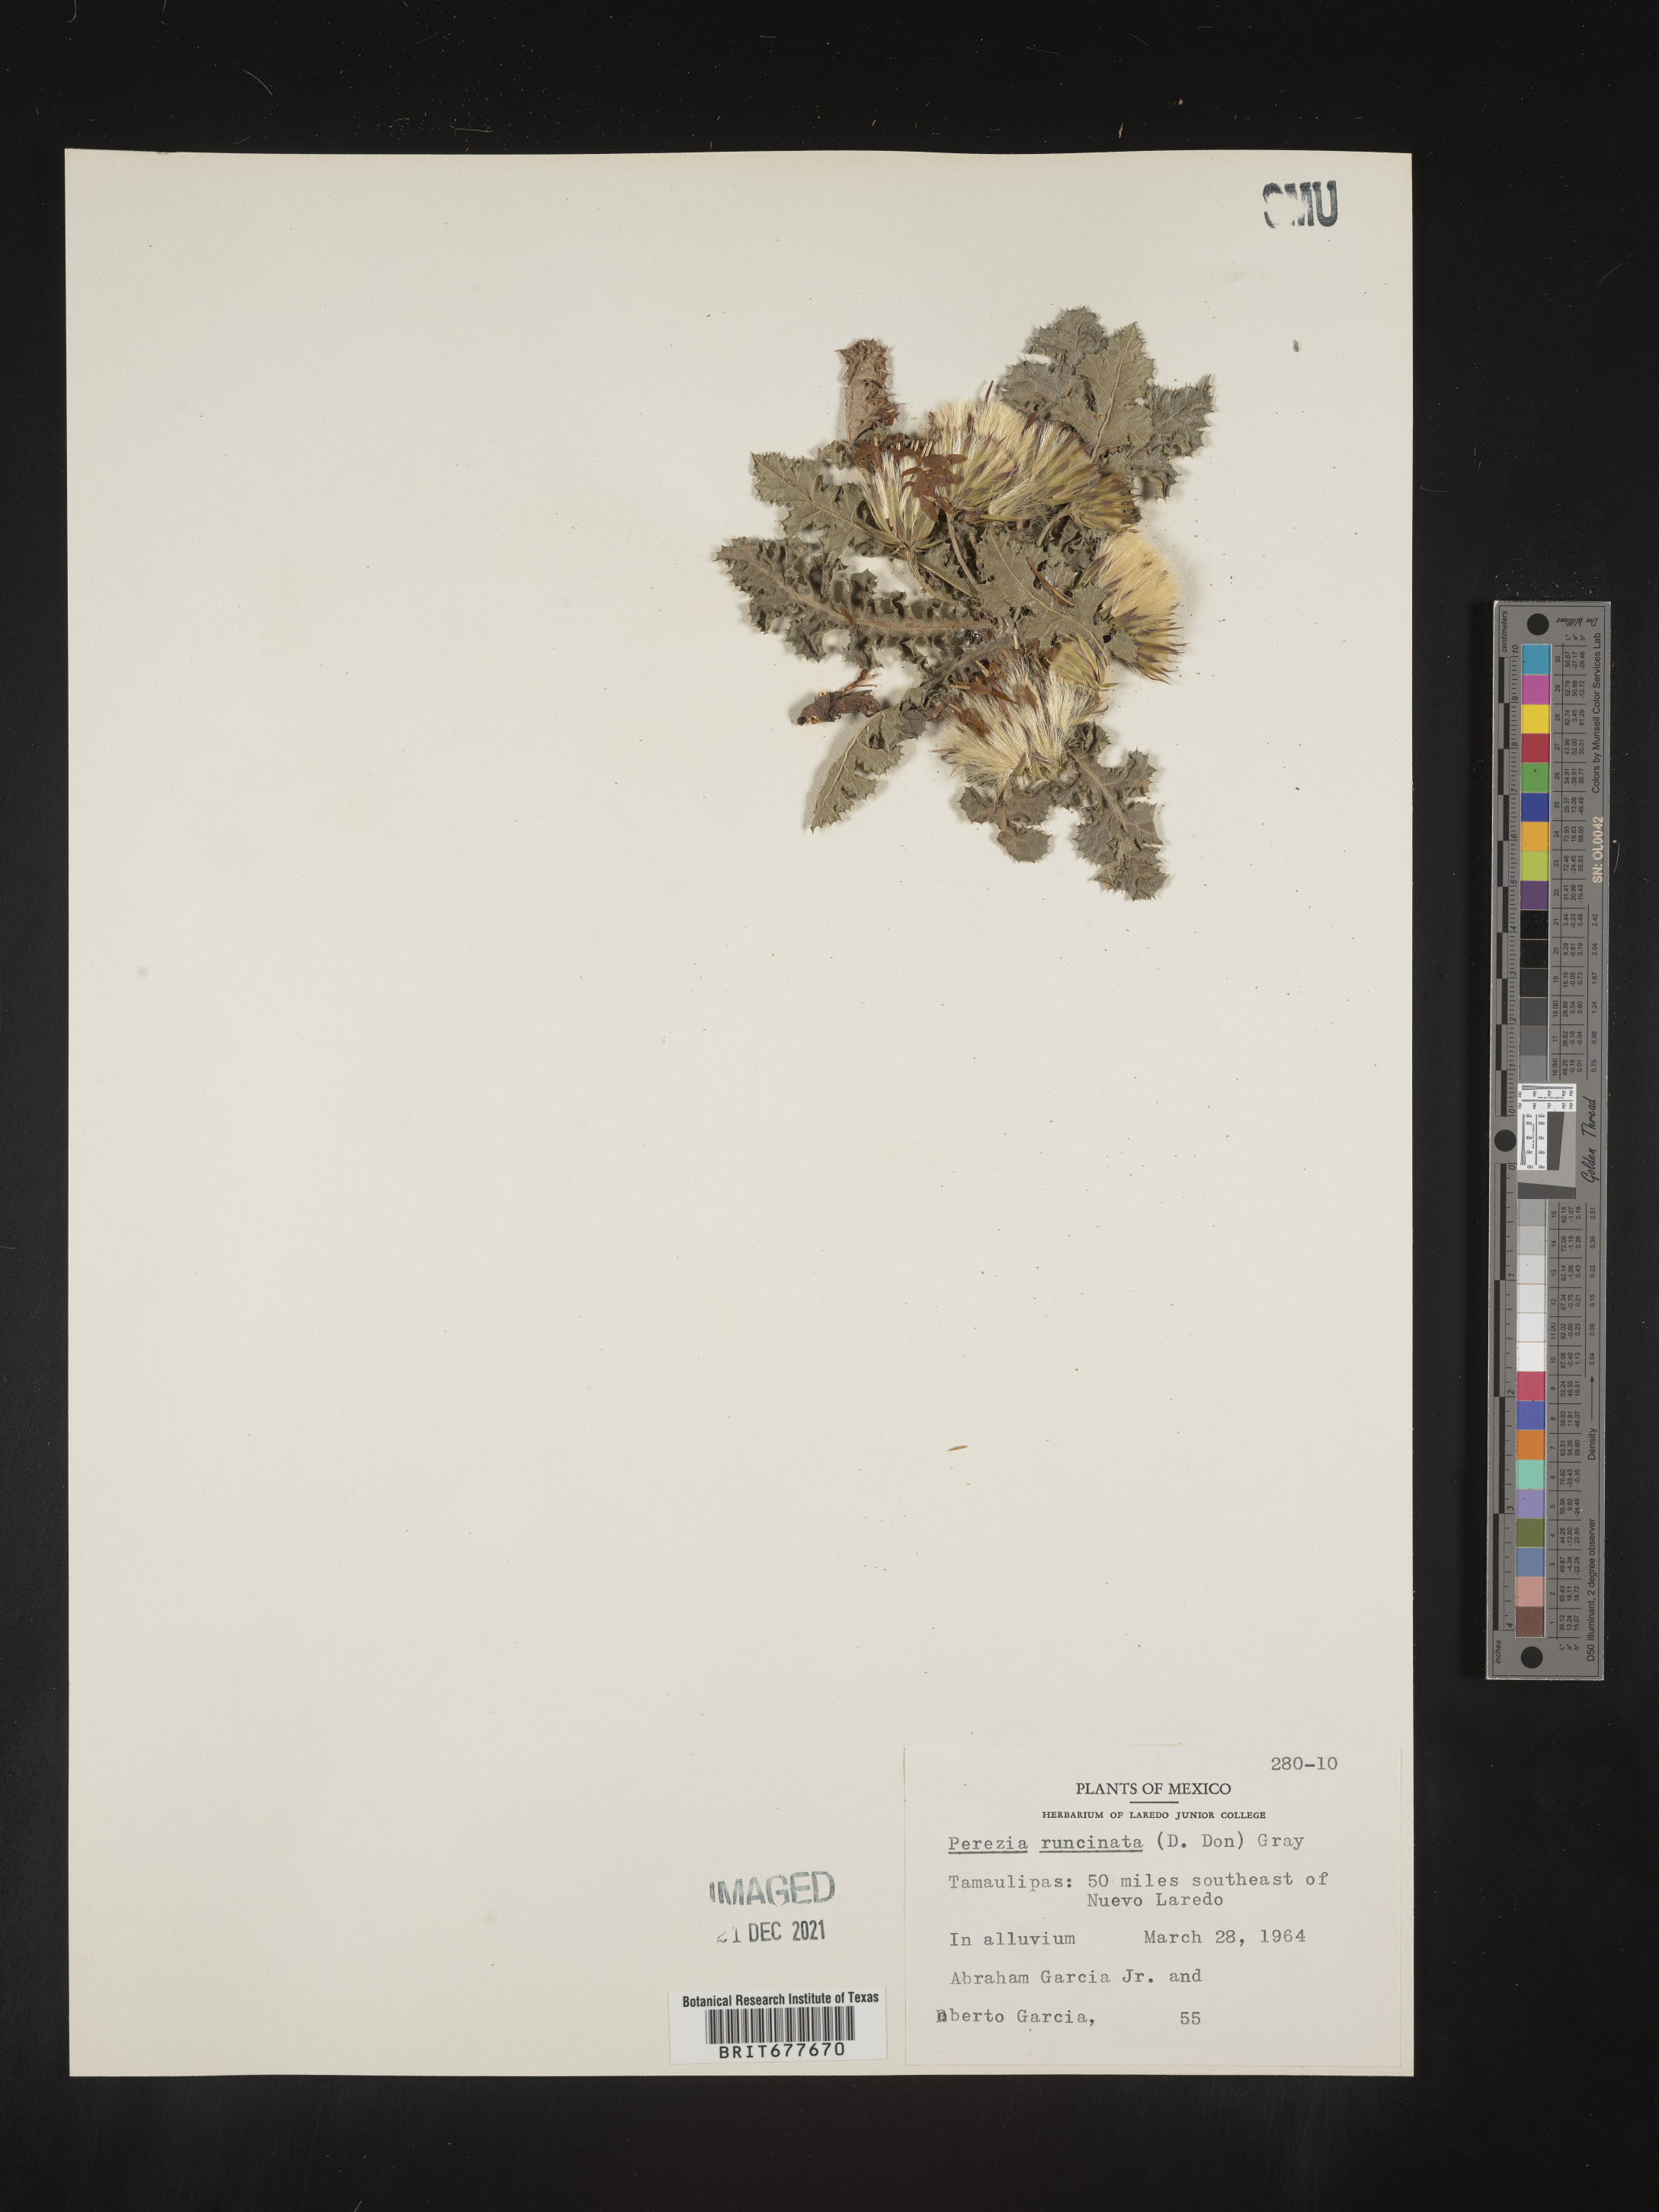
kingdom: Plantae
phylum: Tracheophyta
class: Magnoliopsida
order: Asterales
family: Asteraceae
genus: Perezia
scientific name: Perezia
